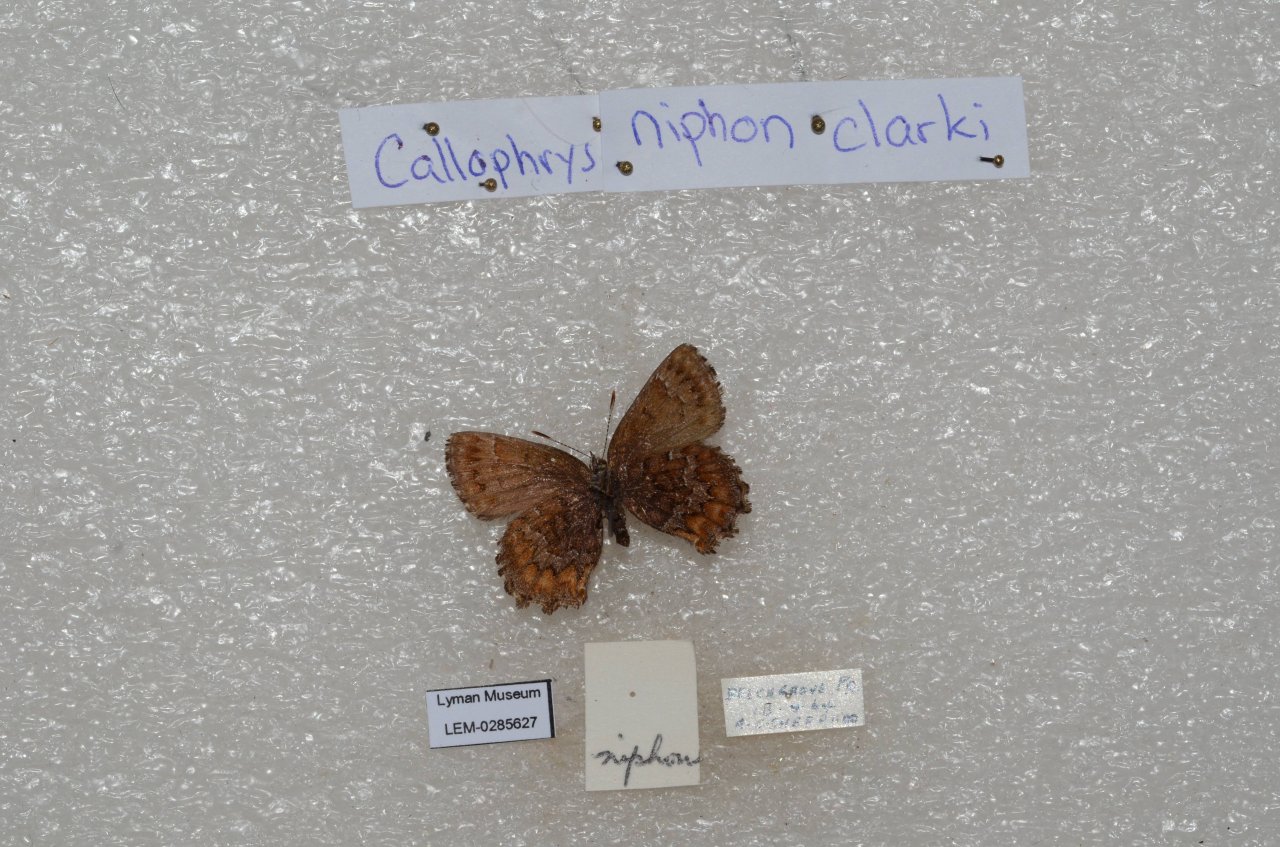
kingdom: Animalia
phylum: Arthropoda
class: Insecta
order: Lepidoptera
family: Lycaenidae
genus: Incisalia
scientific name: Incisalia niphon
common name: Eastern Pine Elfin
